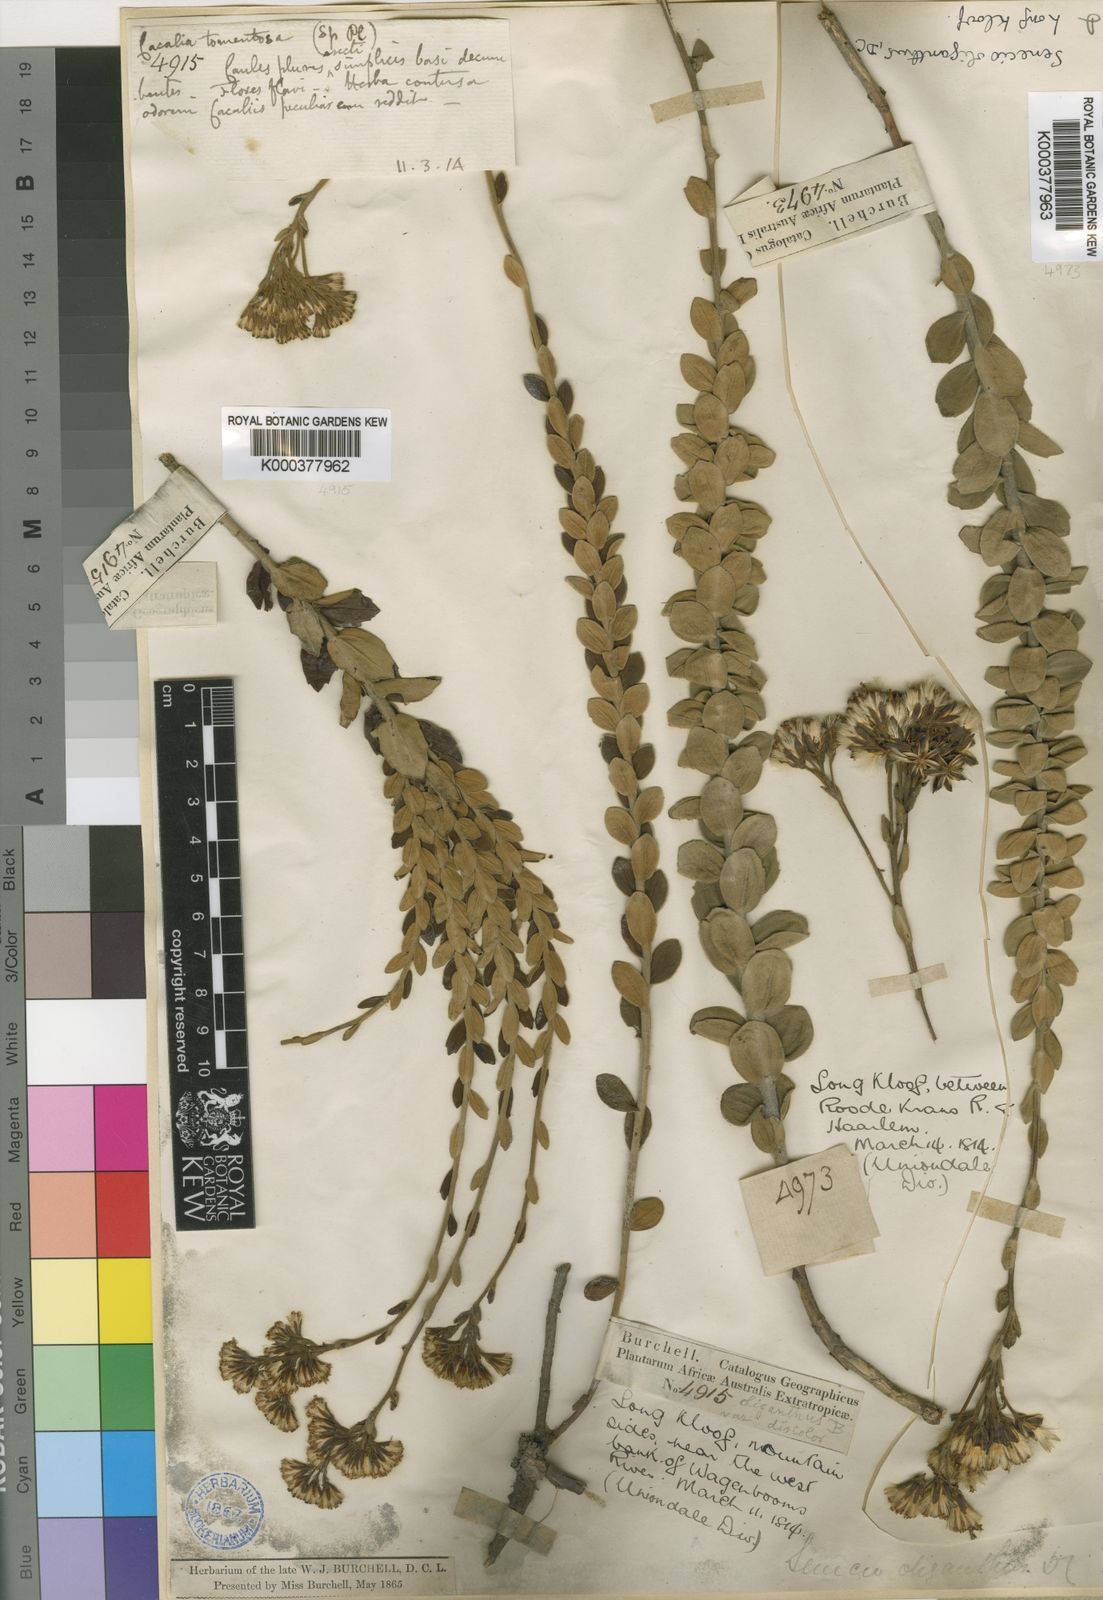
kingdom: Plantae
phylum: Tracheophyta
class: Magnoliopsida
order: Asterales
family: Asteraceae
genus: Senecio
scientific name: Senecio pauciflosculosus
